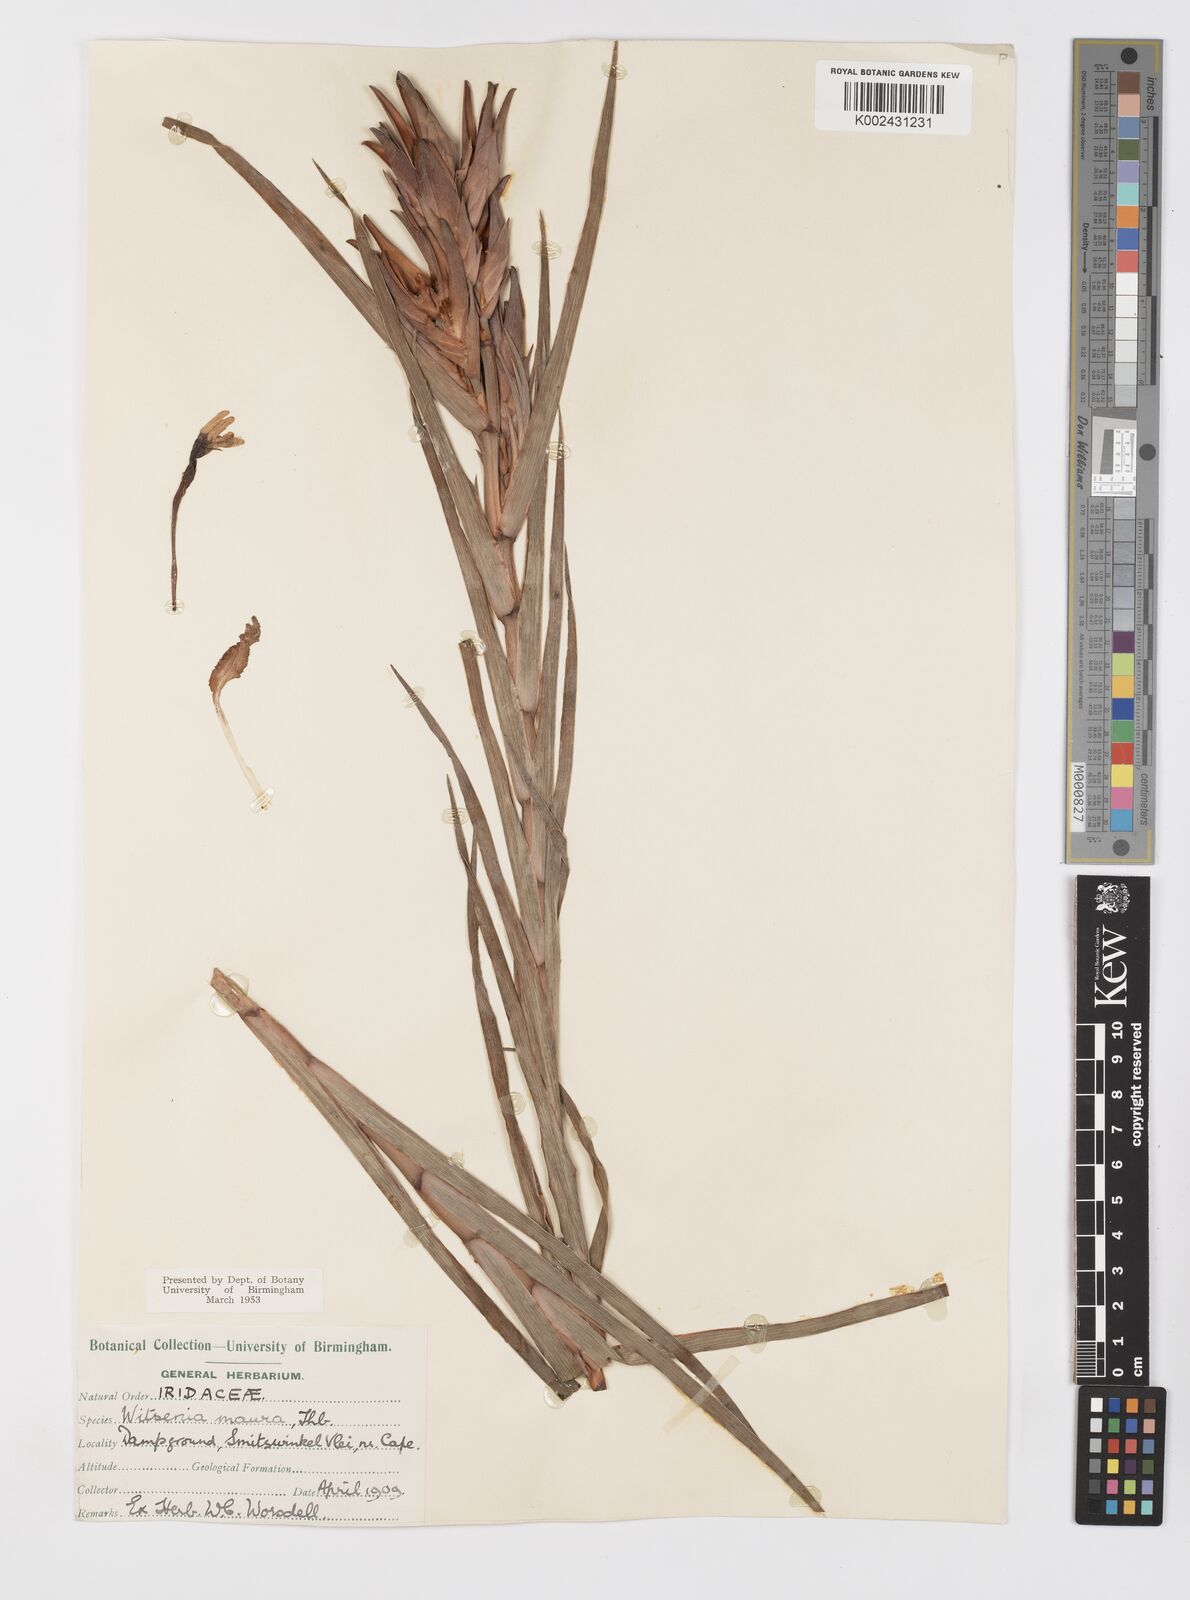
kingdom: Plantae
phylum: Tracheophyta
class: Liliopsida
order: Asparagales
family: Iridaceae
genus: Witsenia
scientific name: Witsenia maura
